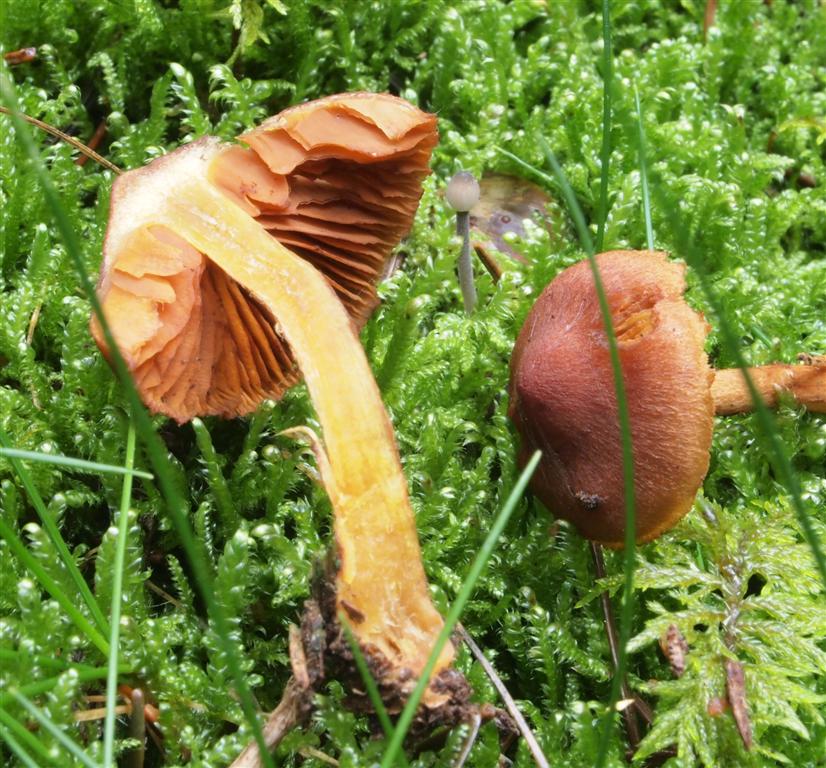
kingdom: Fungi
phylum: Basidiomycota
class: Agaricomycetes
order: Agaricales
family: Cortinariaceae
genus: Cortinarius
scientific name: Cortinarius cinnamomeus
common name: kanel-slørhat
